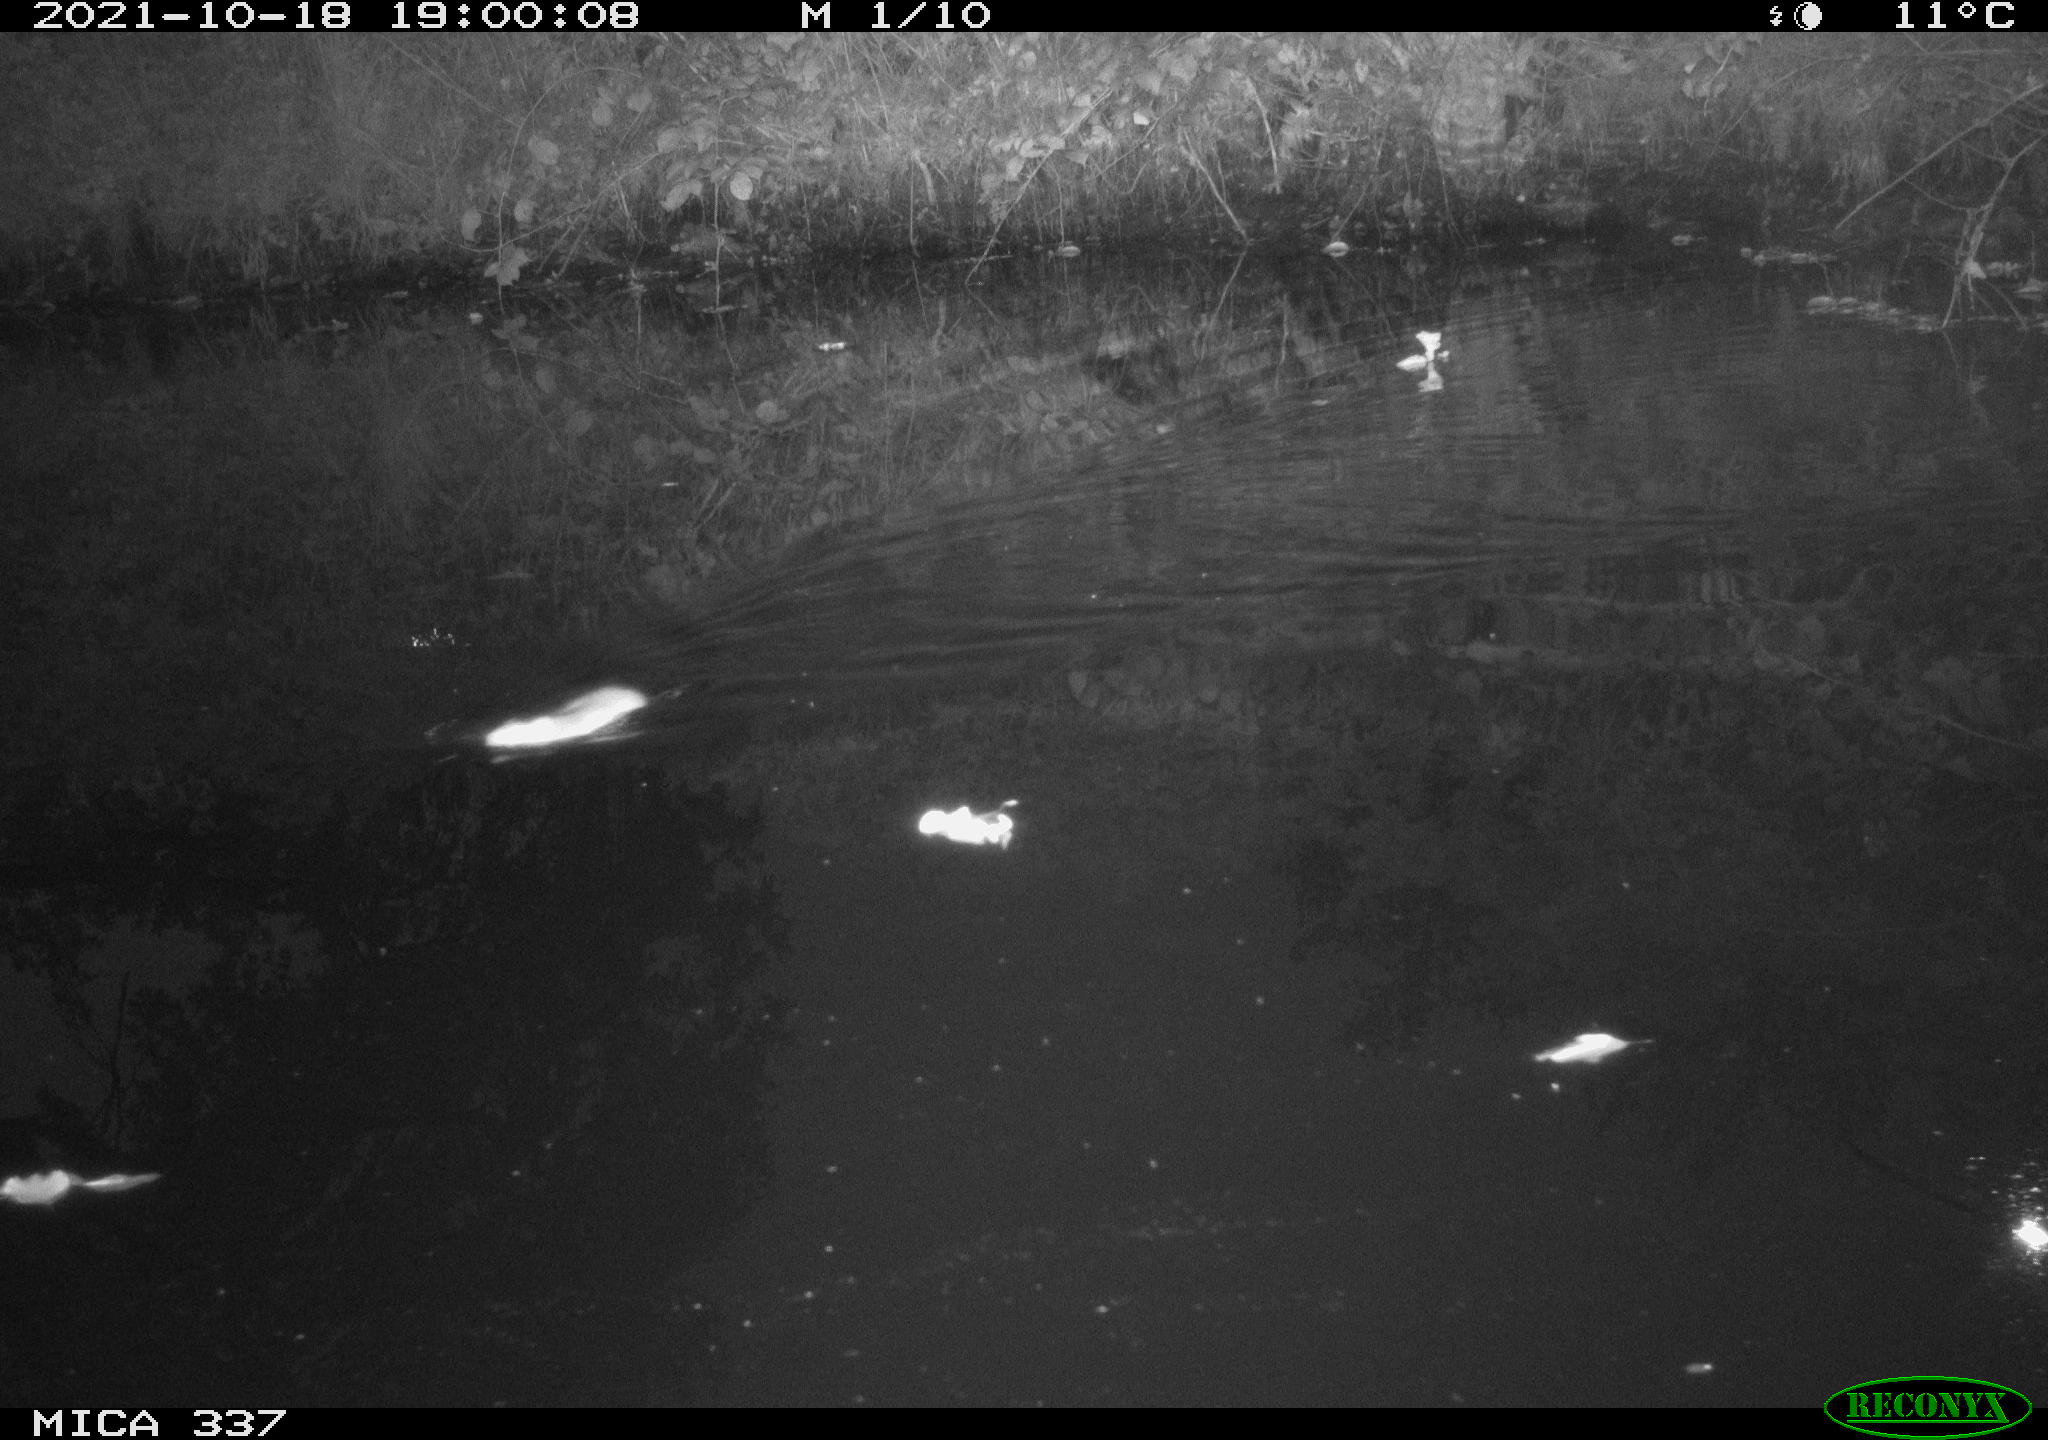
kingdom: Animalia
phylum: Chordata
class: Mammalia
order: Rodentia
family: Muridae
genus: Rattus
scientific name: Rattus norvegicus
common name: Brown rat
